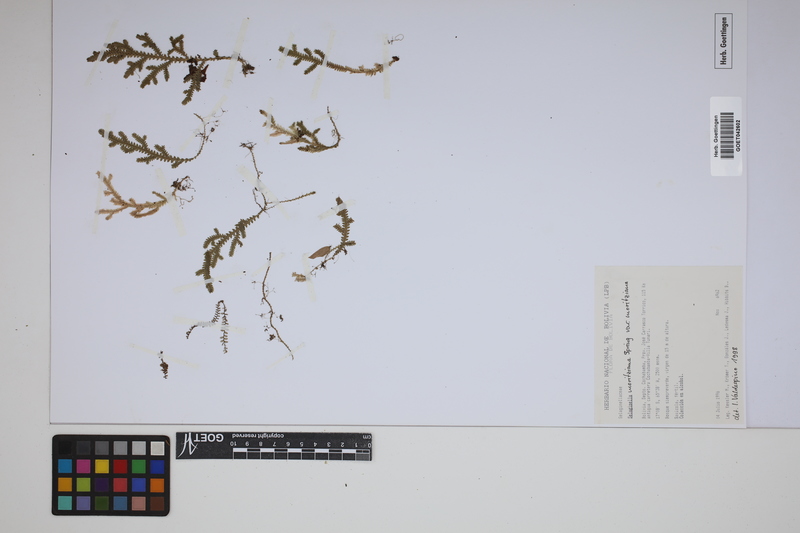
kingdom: Plantae
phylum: Tracheophyta
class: Lycopodiopsida
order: Selaginellales
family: Selaginellaceae
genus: Selaginella
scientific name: Selaginella moritziana
